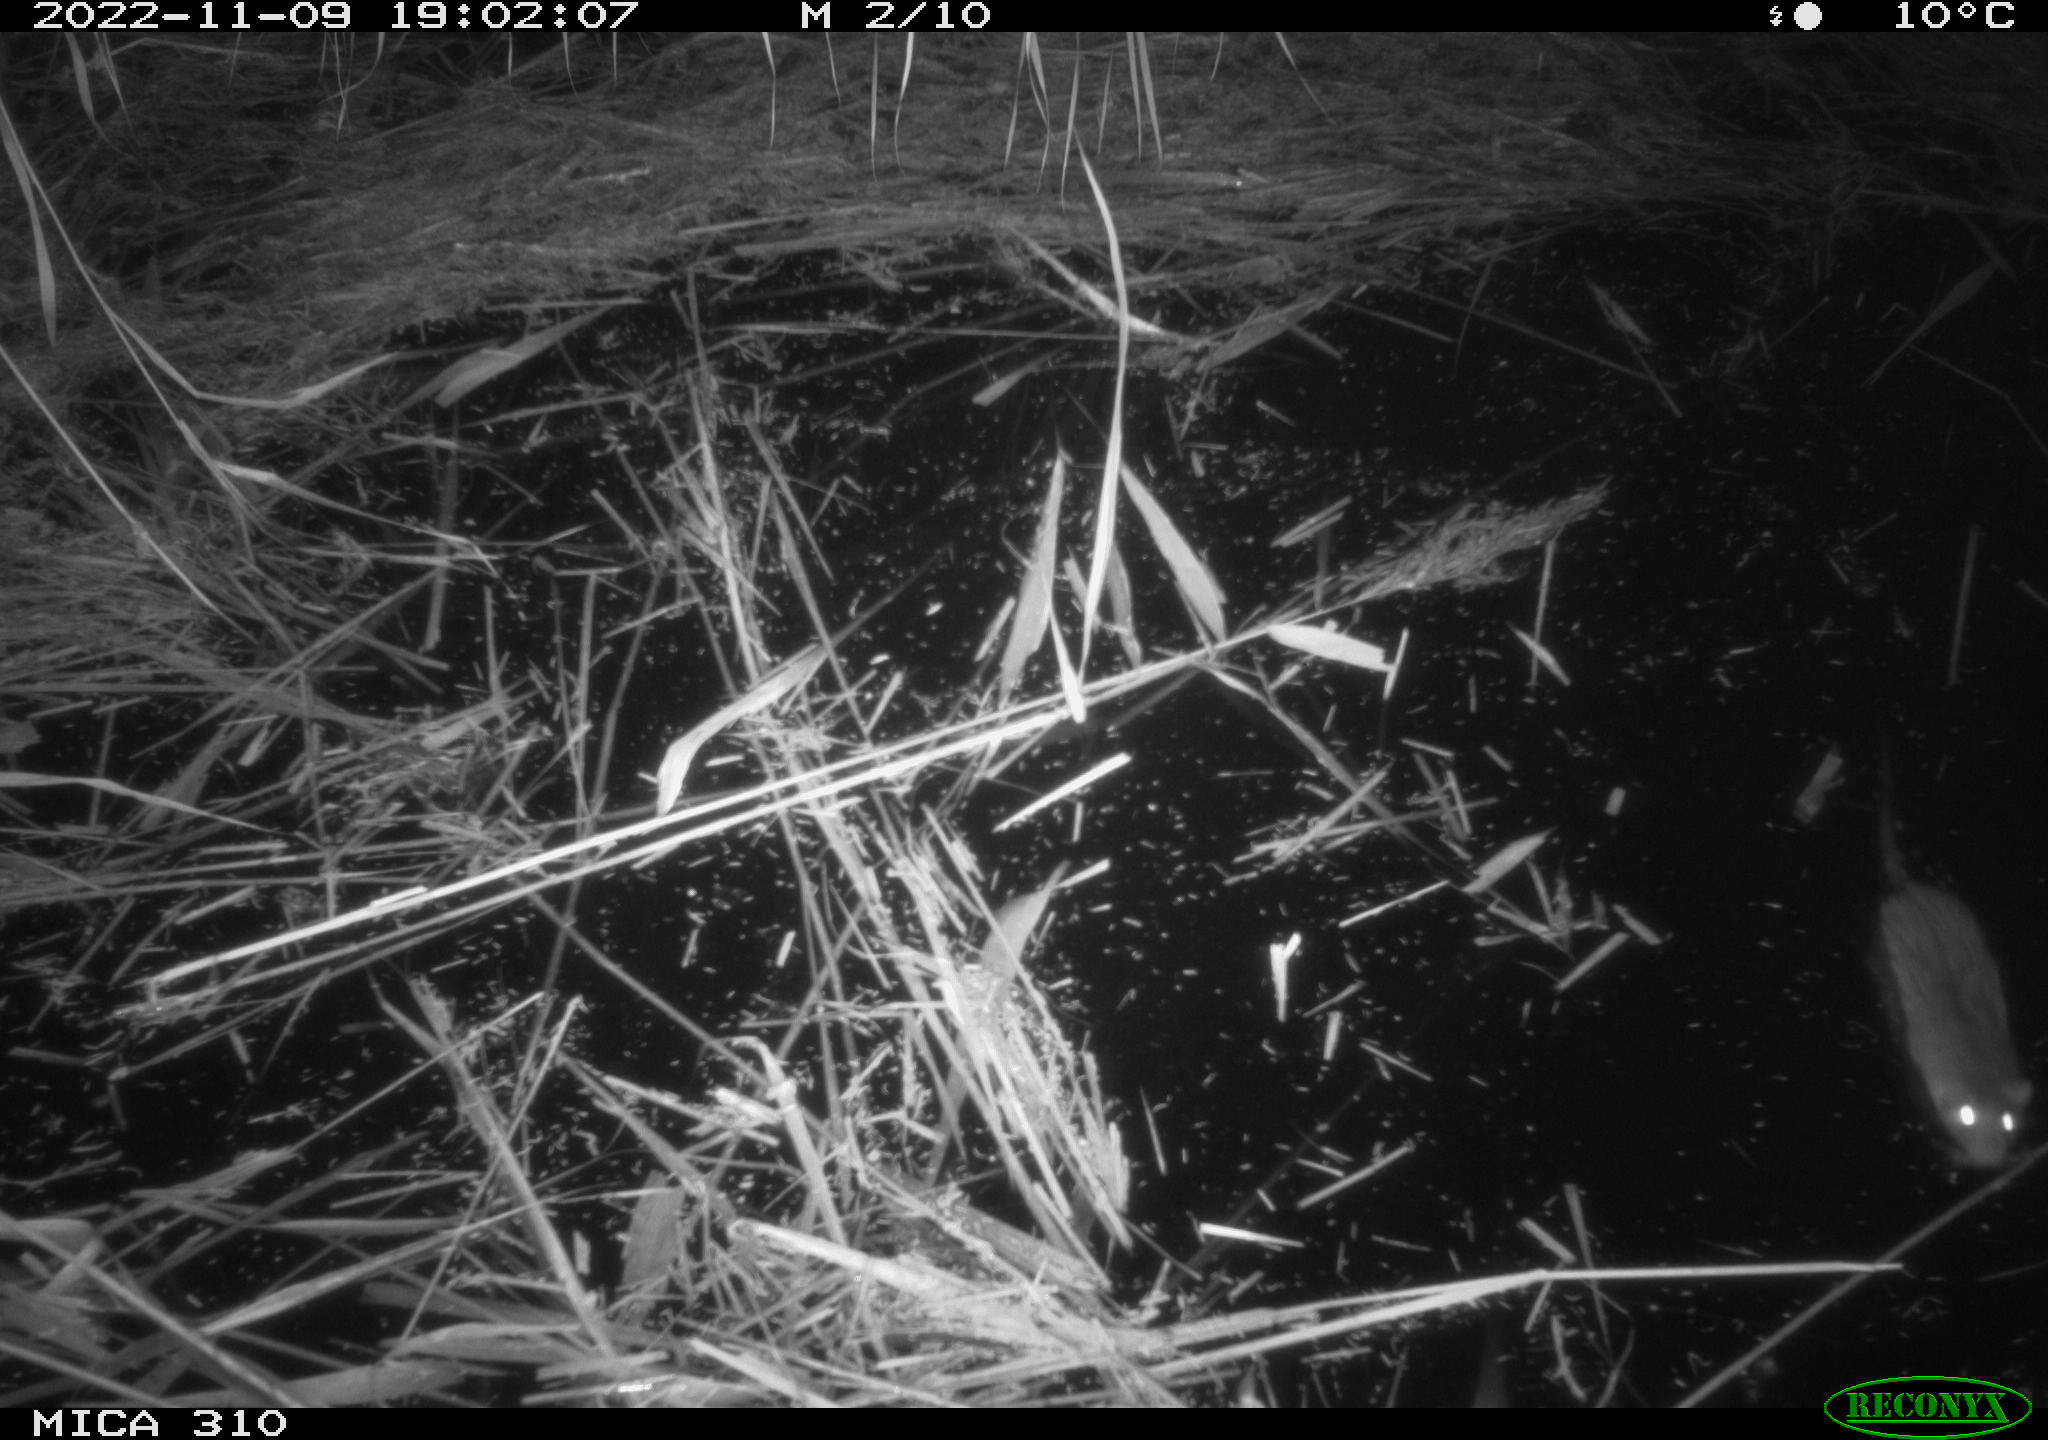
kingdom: Animalia
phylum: Chordata
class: Mammalia
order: Rodentia
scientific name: Rodentia
